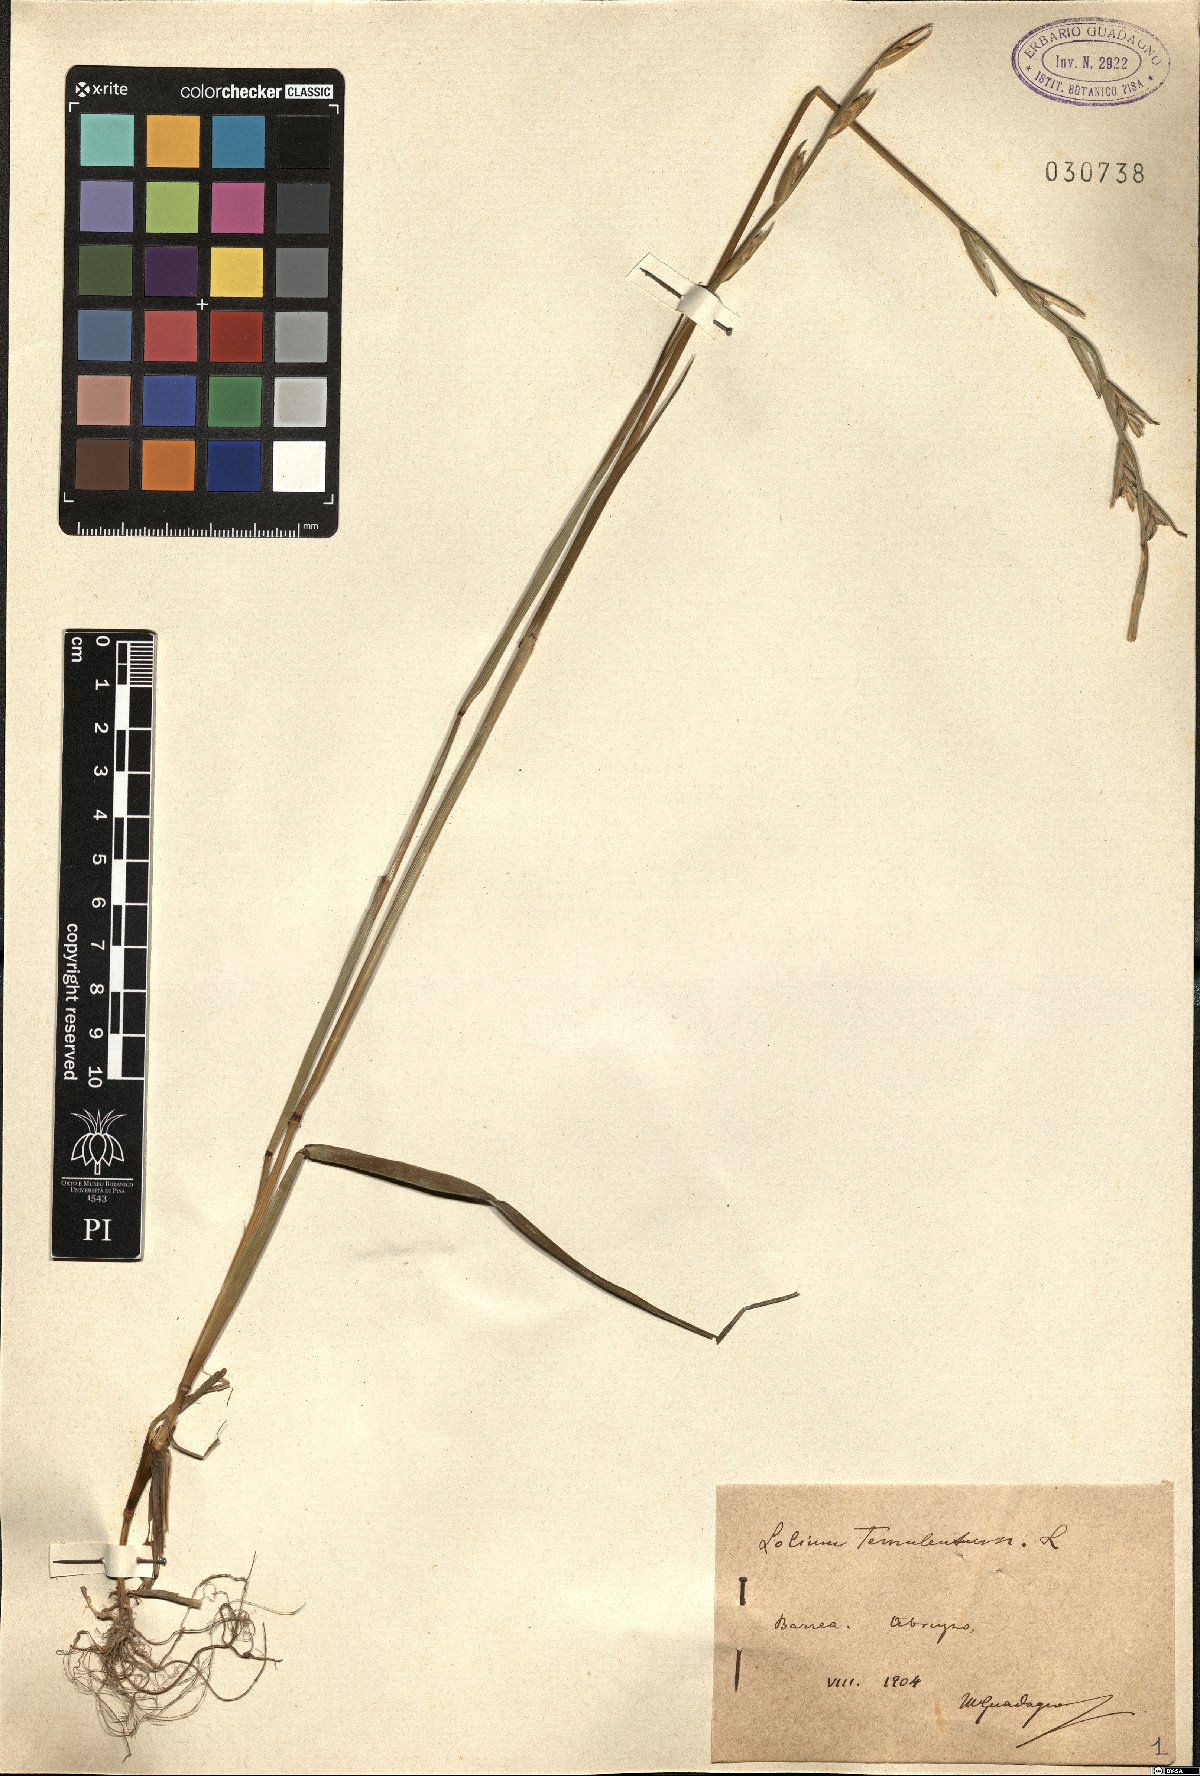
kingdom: Plantae
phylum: Tracheophyta
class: Liliopsida
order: Poales
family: Poaceae
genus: Lolium
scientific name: Lolium temulentum
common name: Darnel
